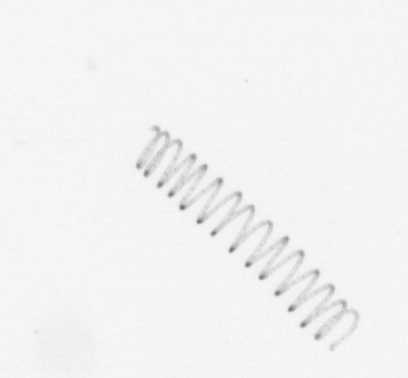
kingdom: Chromista
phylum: Ochrophyta
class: Bacillariophyceae
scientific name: Bacillariophyceae
